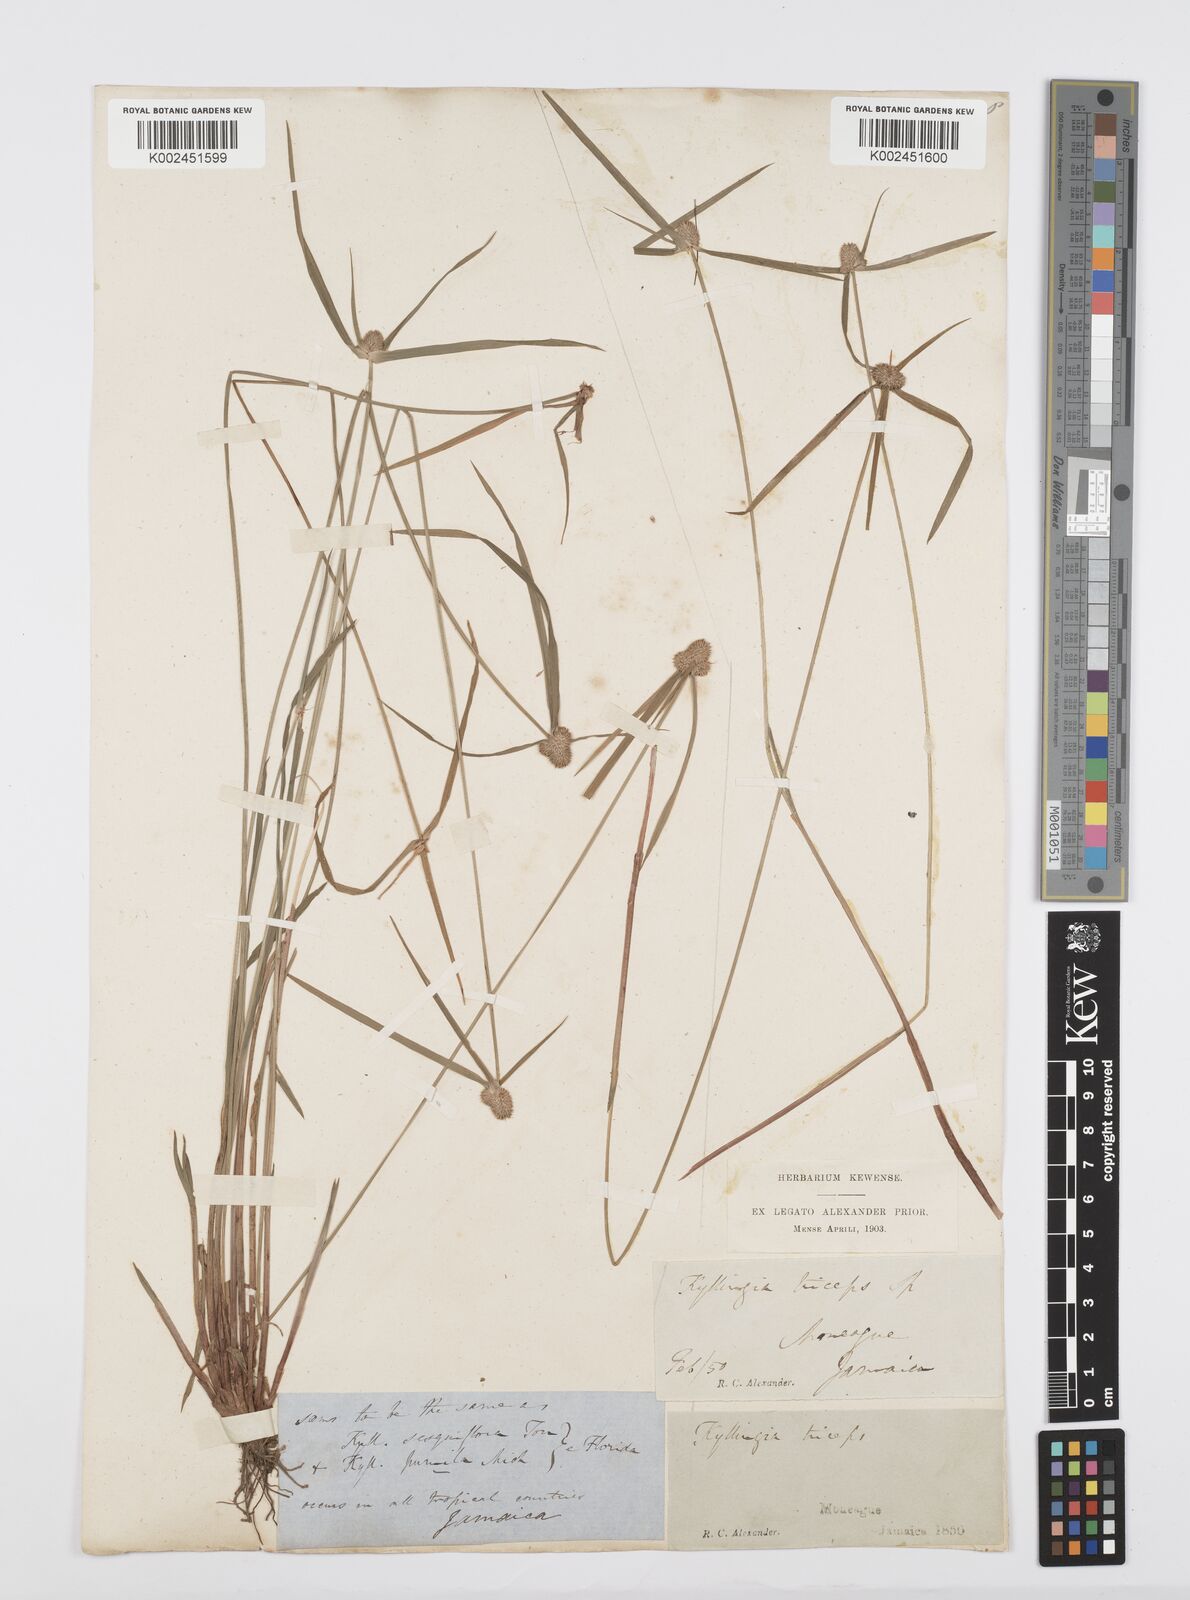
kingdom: Plantae
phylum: Tracheophyta
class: Liliopsida
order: Poales
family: Cyperaceae
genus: Cyperus
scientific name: Cyperus
